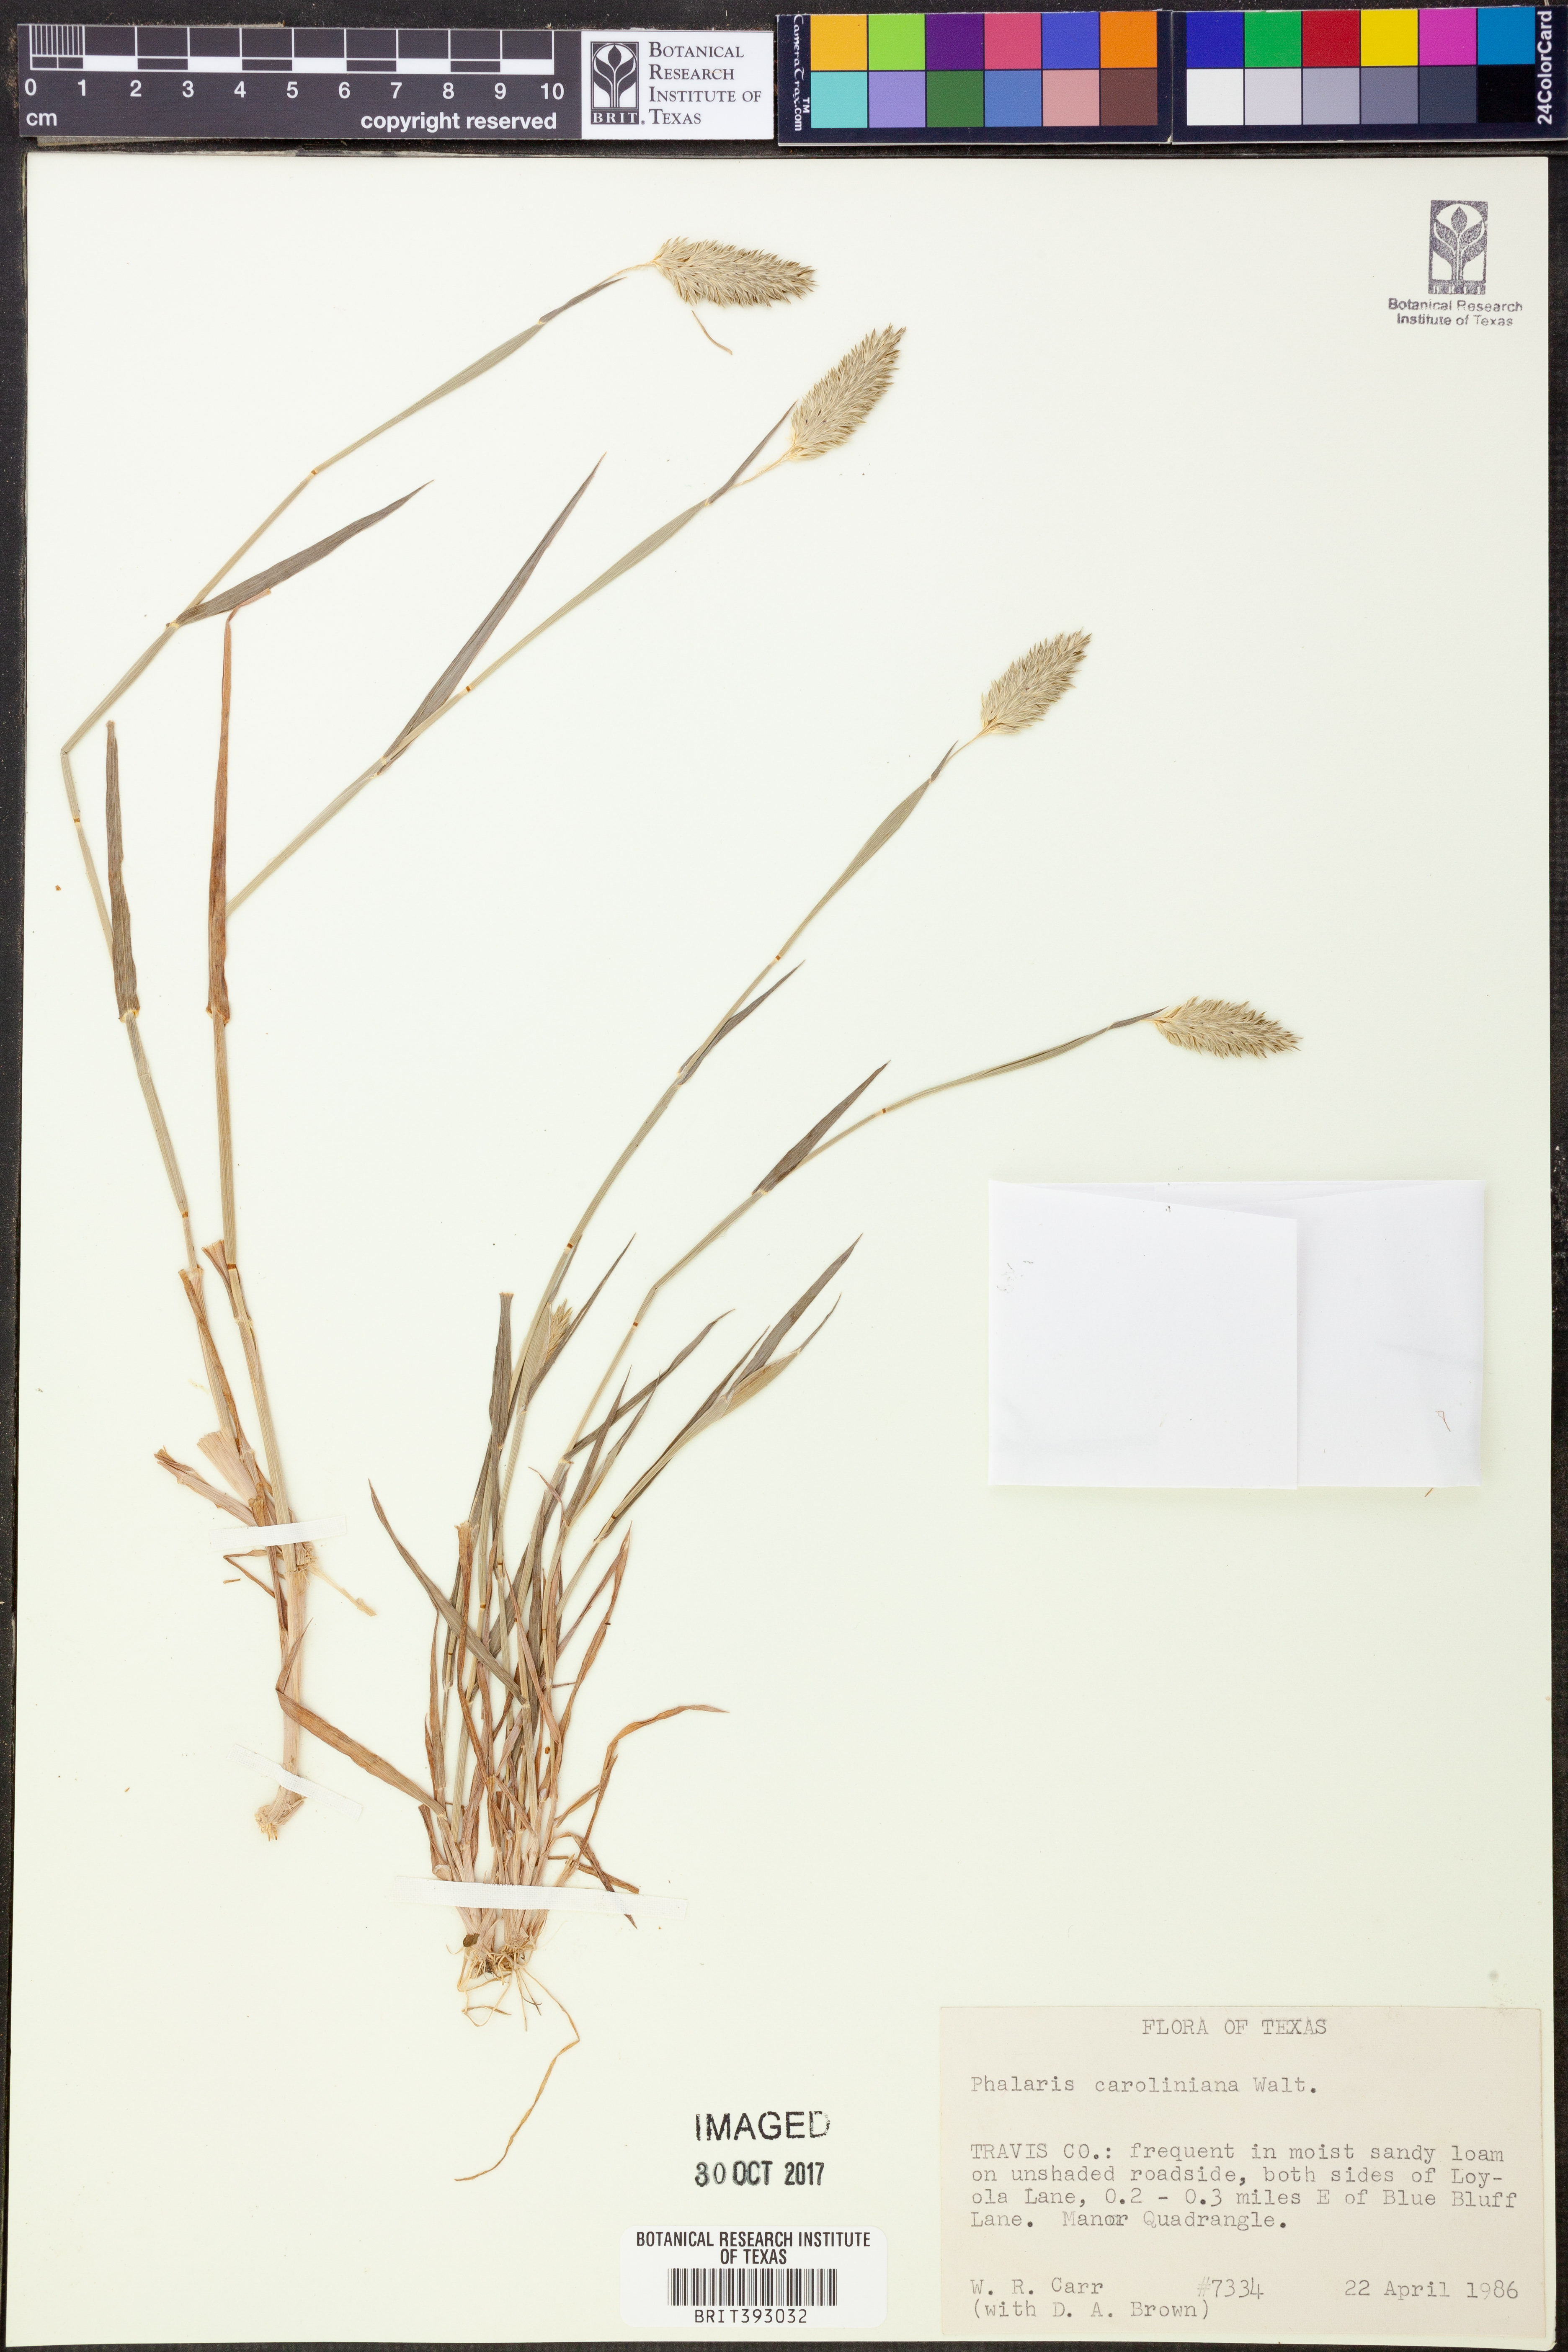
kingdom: Plantae
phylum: Tracheophyta
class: Liliopsida
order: Poales
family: Poaceae
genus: Phalaris
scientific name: Phalaris caroliniana
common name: May grass
